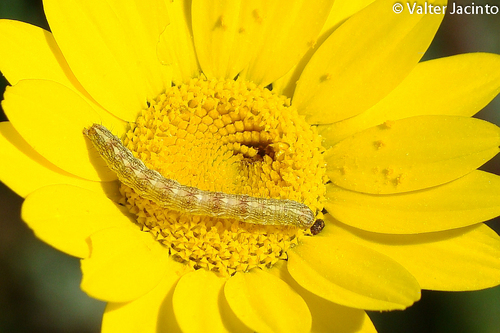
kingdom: Animalia
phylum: Arthropoda
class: Insecta
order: Lepidoptera
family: Noctuidae
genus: Cucullia
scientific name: Cucullia chamomillae
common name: Chamomile shark
